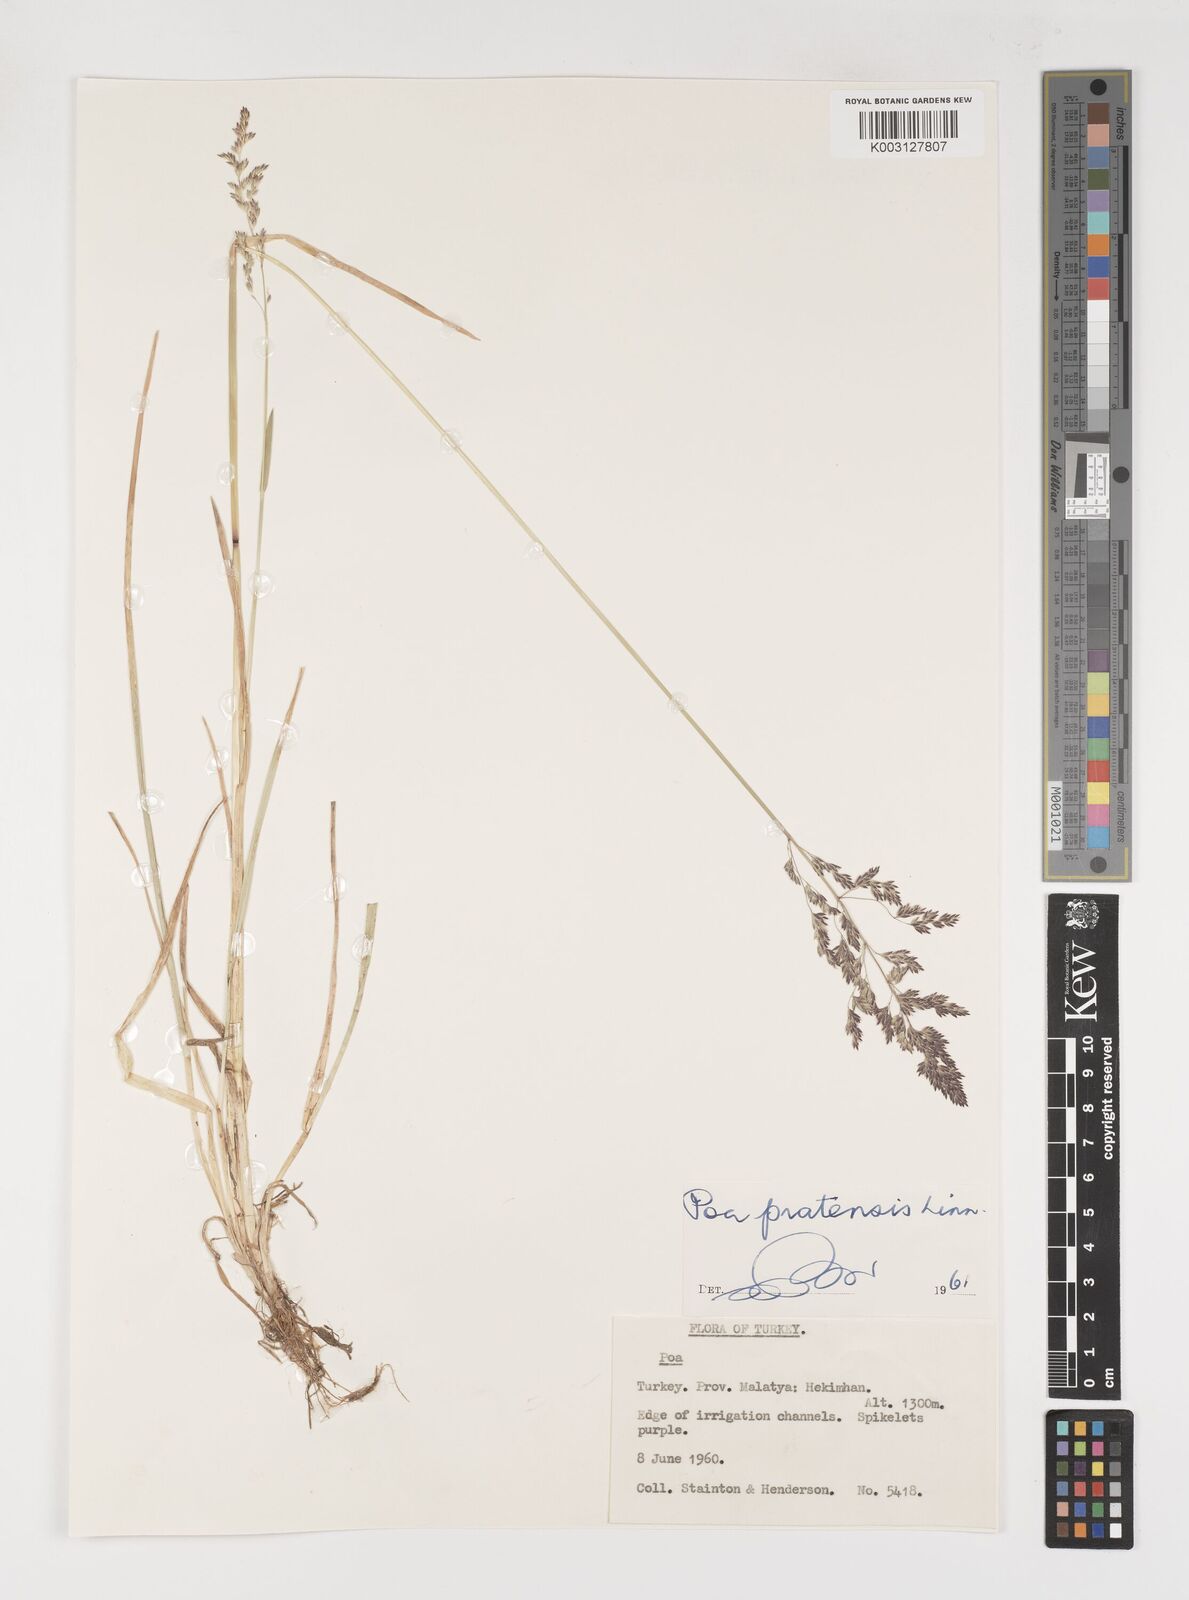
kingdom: Plantae
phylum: Tracheophyta
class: Liliopsida
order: Poales
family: Poaceae
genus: Poa
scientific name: Poa angustifolia
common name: Narrow-leaved meadow-grass
